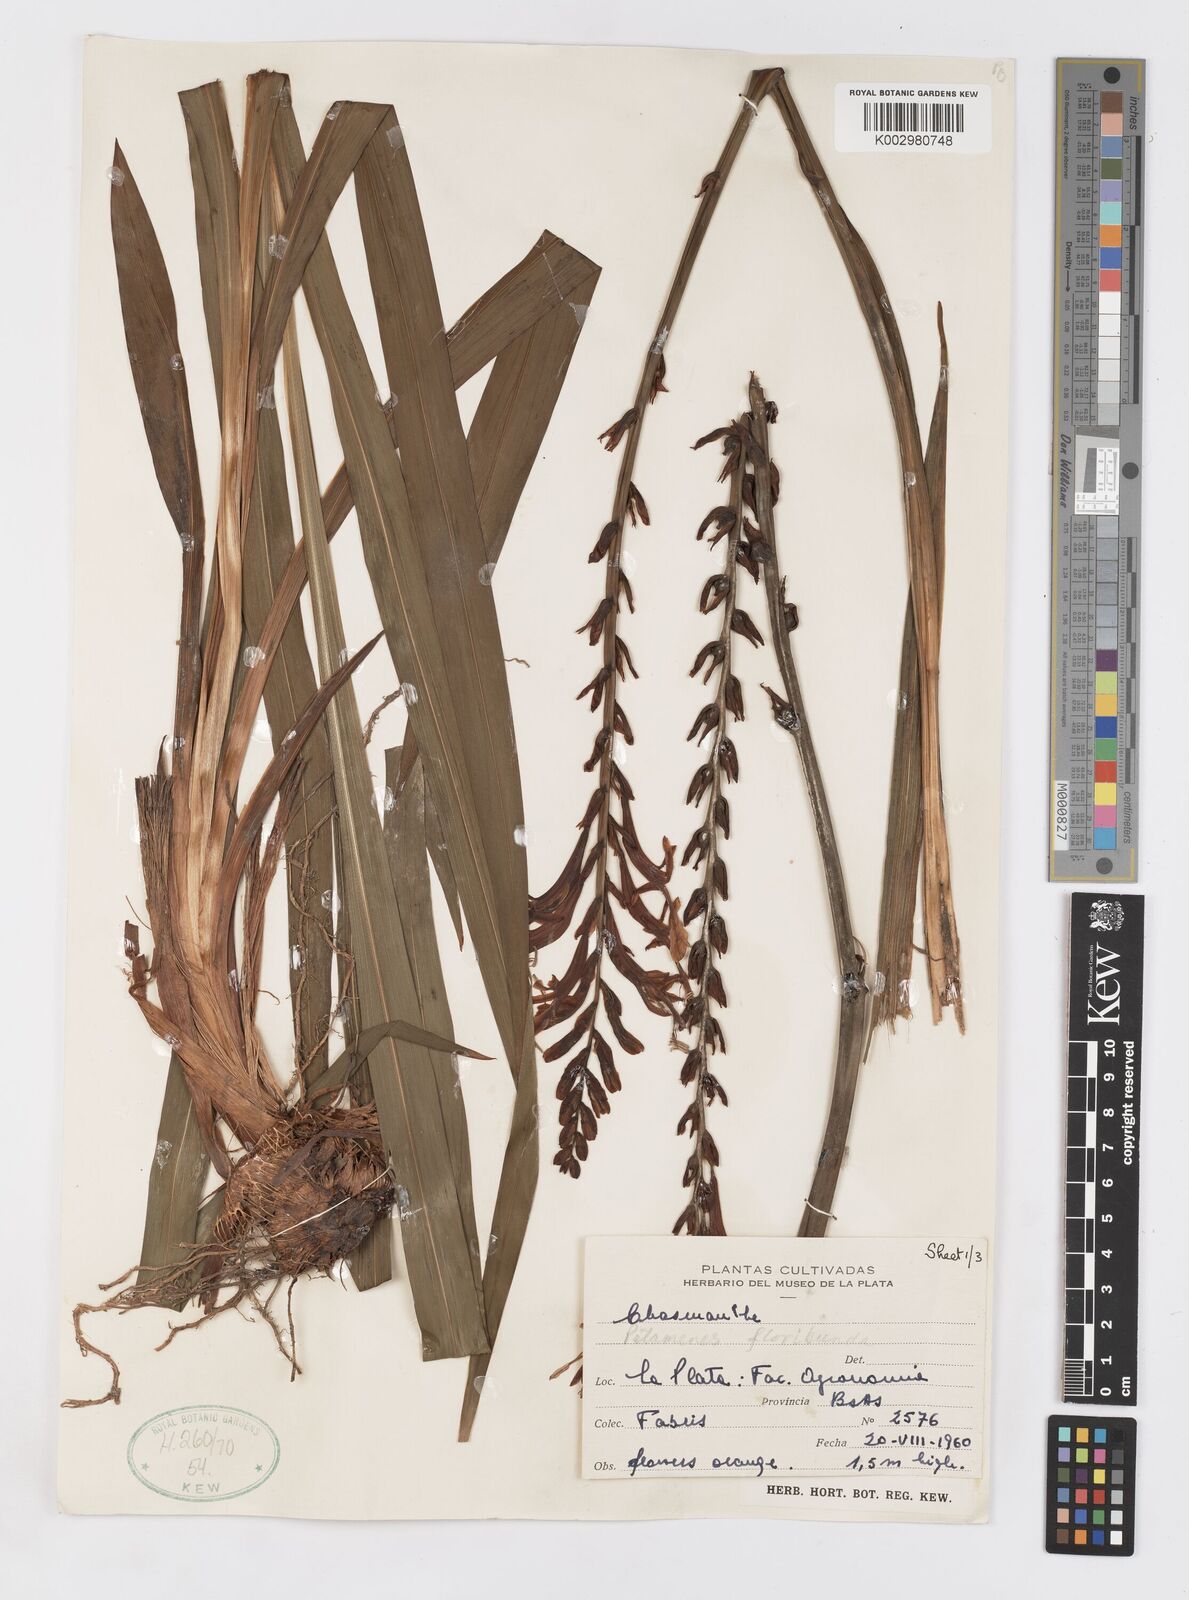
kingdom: Plantae
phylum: Tracheophyta
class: Liliopsida
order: Asparagales
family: Iridaceae
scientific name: Iridaceae
